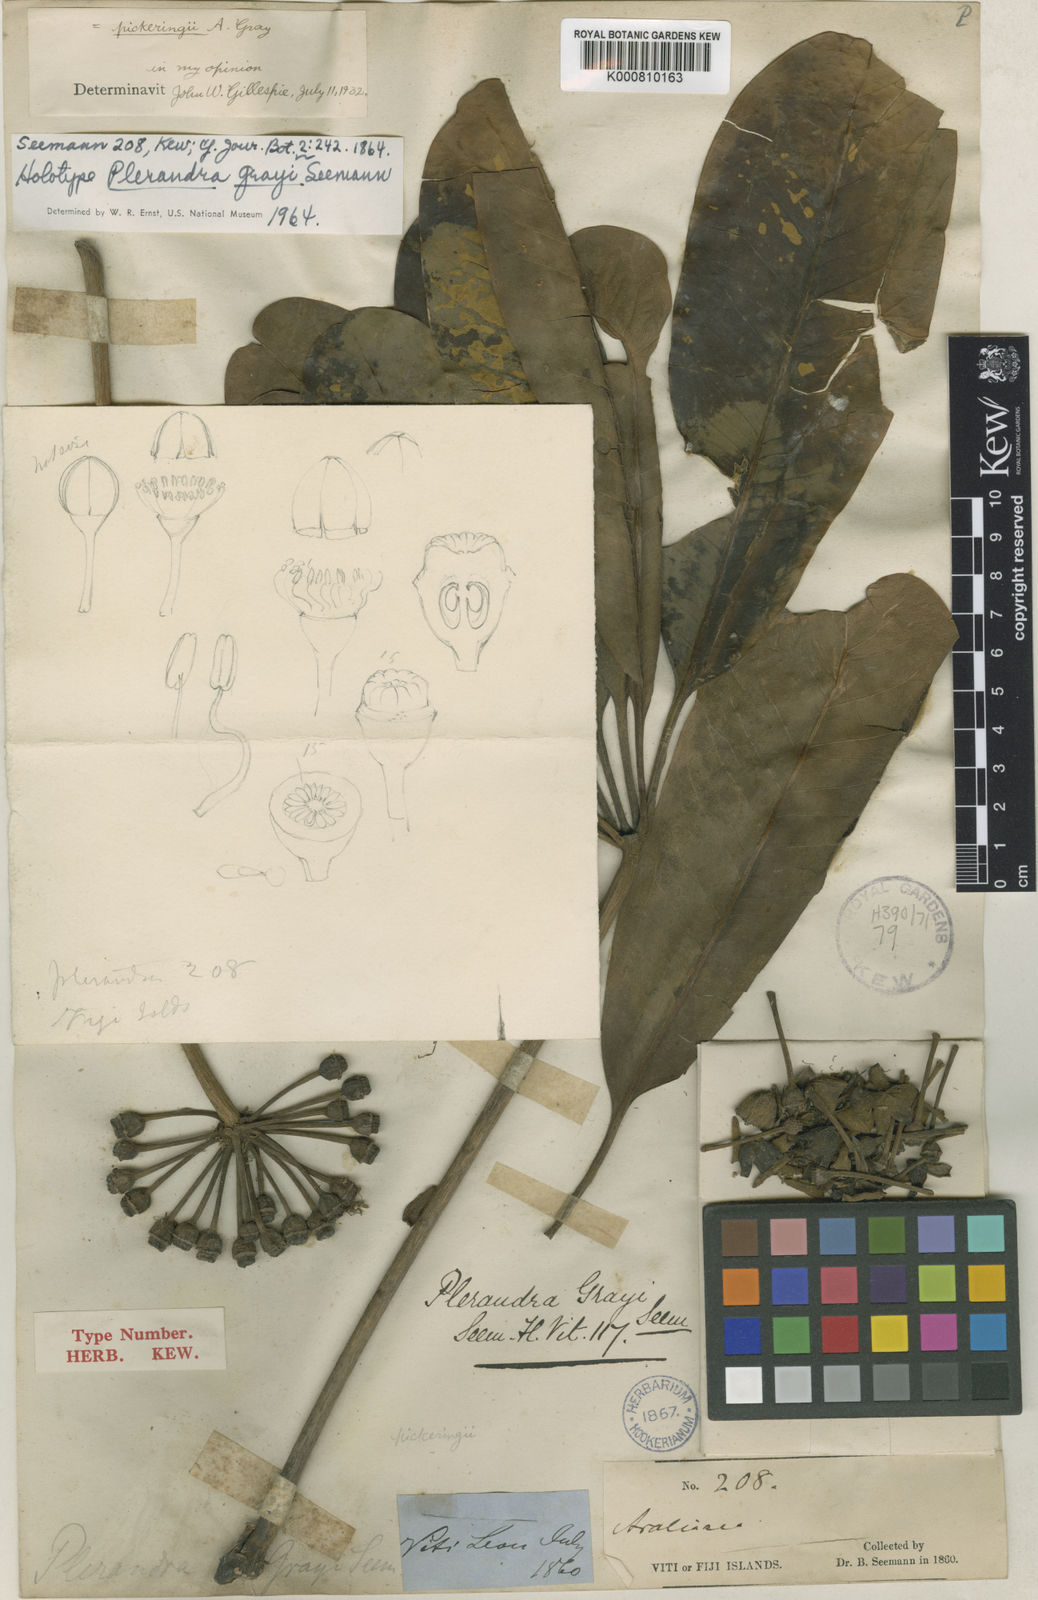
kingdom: Plantae
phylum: Tracheophyta
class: Magnoliopsida
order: Apiales
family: Araliaceae
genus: Plerandra
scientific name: Plerandra grayi
